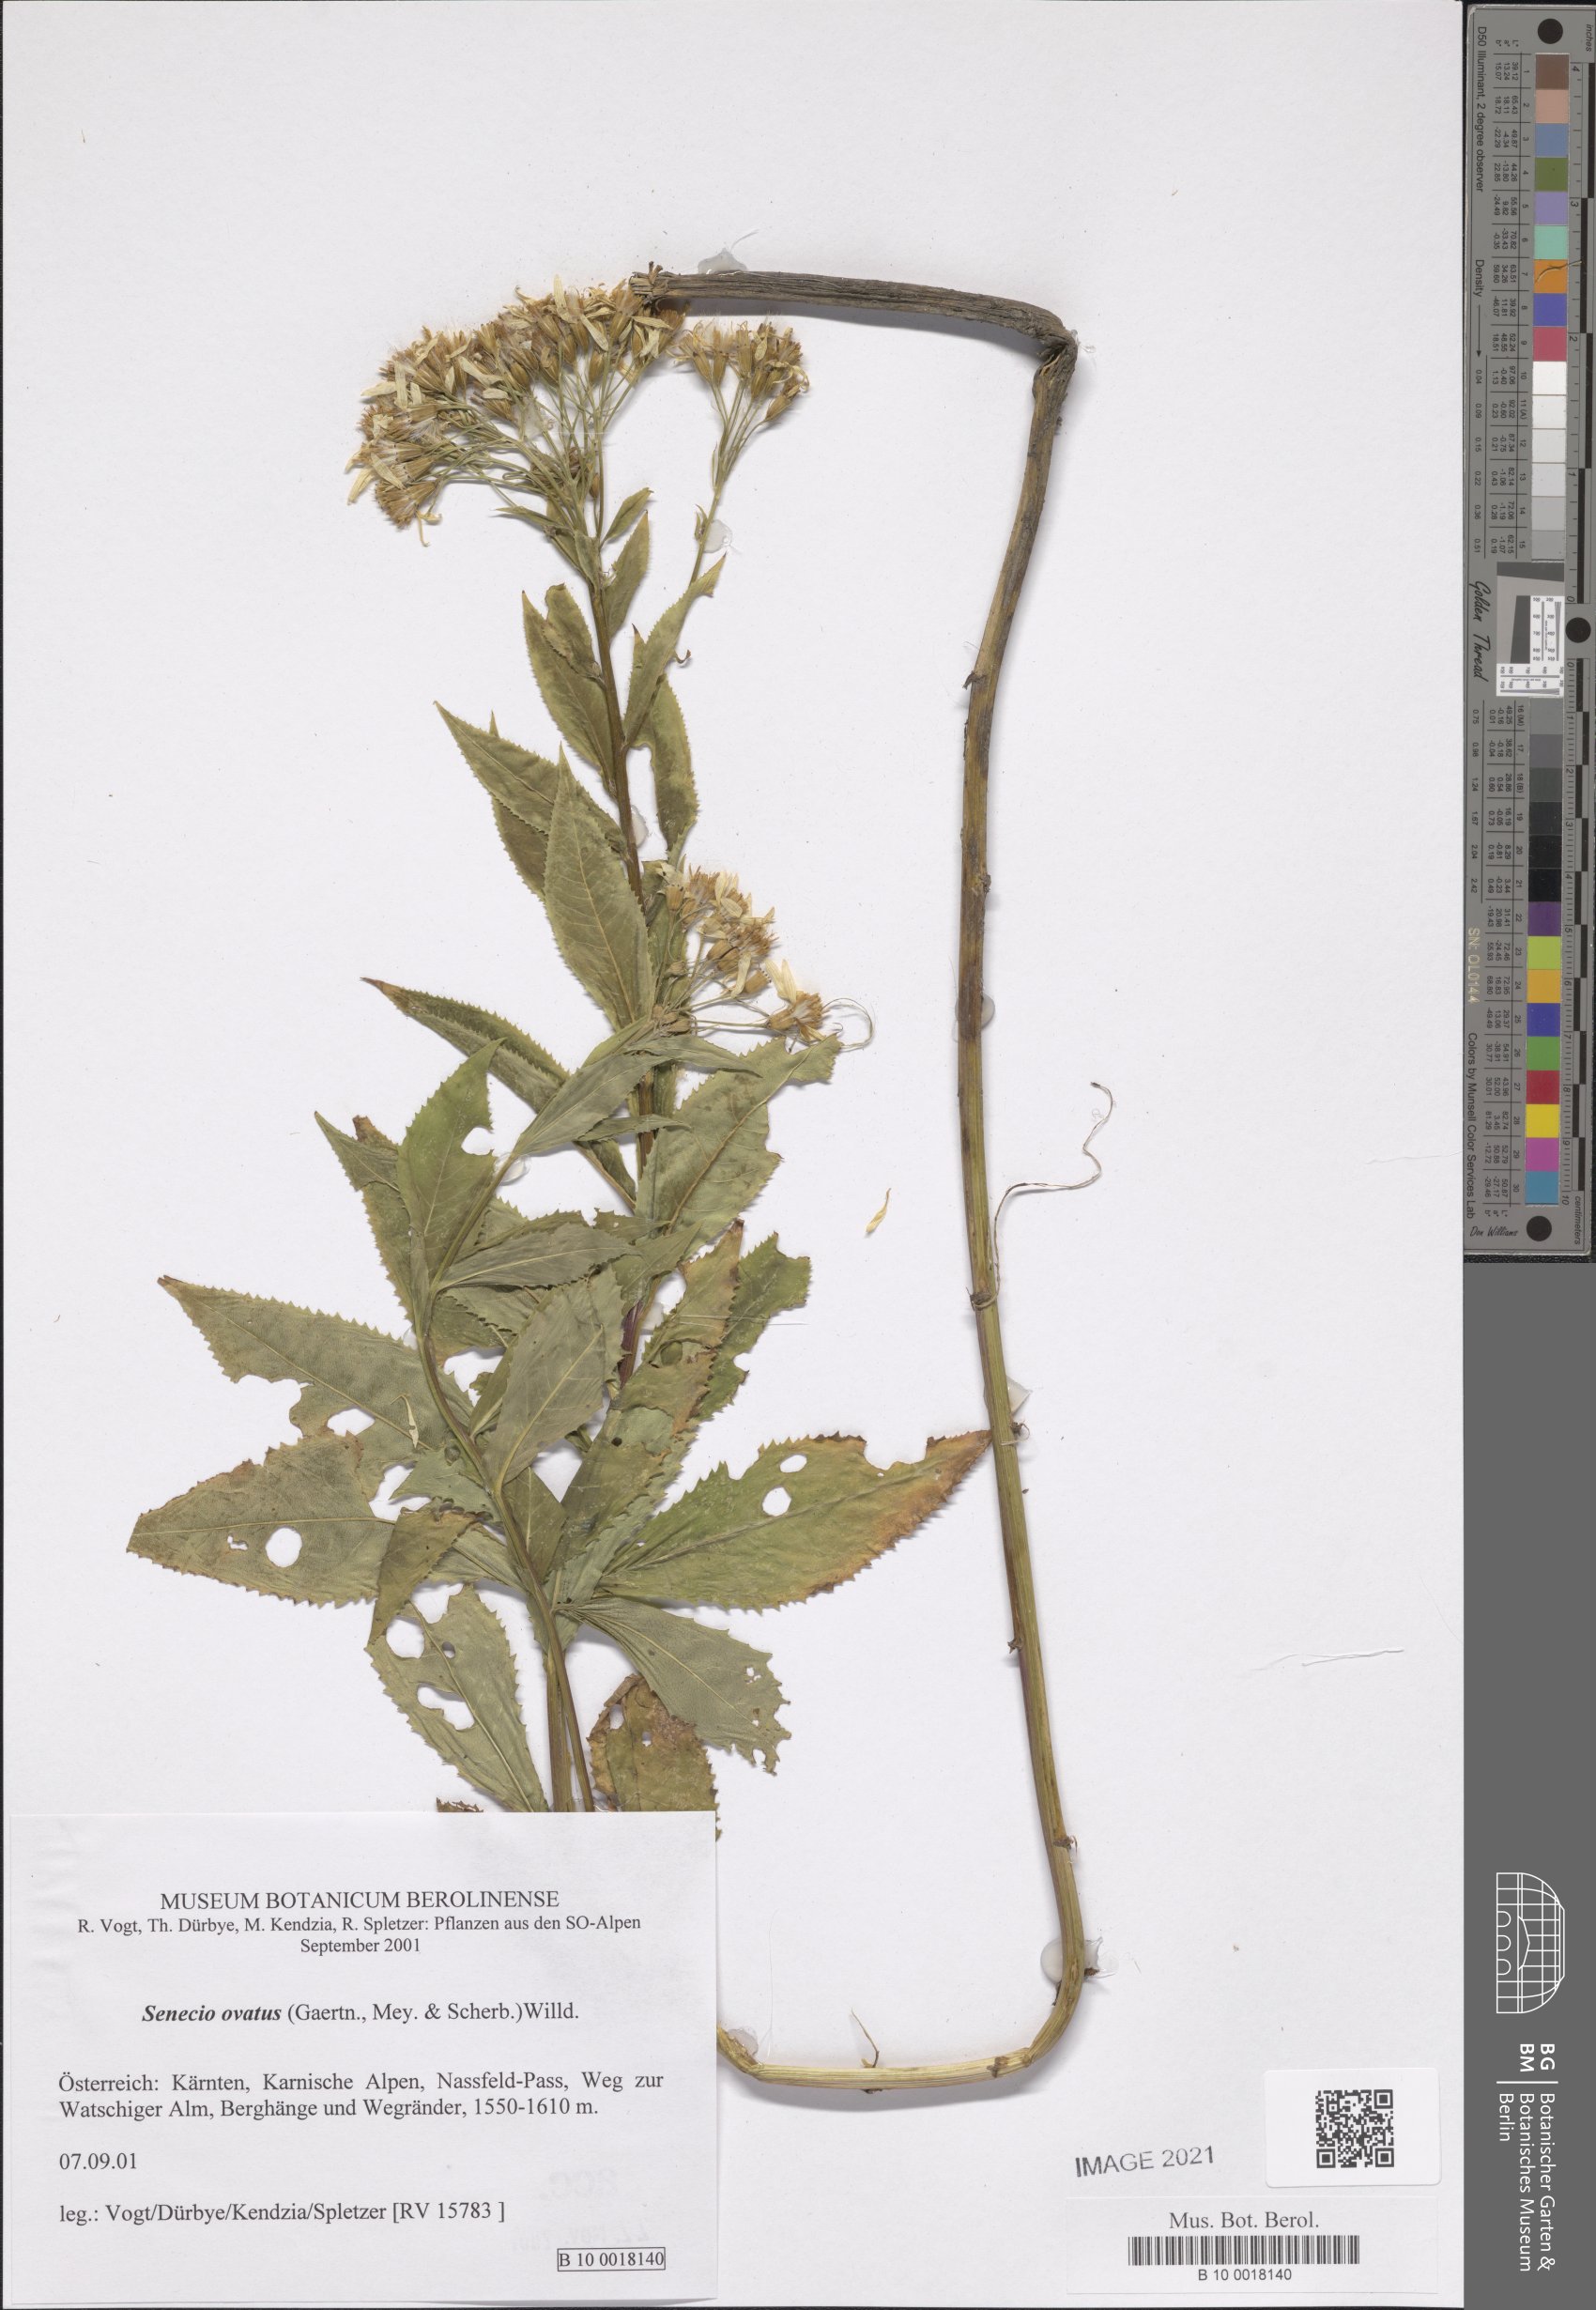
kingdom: Plantae
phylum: Tracheophyta
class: Magnoliopsida
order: Asterales
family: Asteraceae
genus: Senecio
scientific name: Senecio ovatus
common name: Wood ragwort
